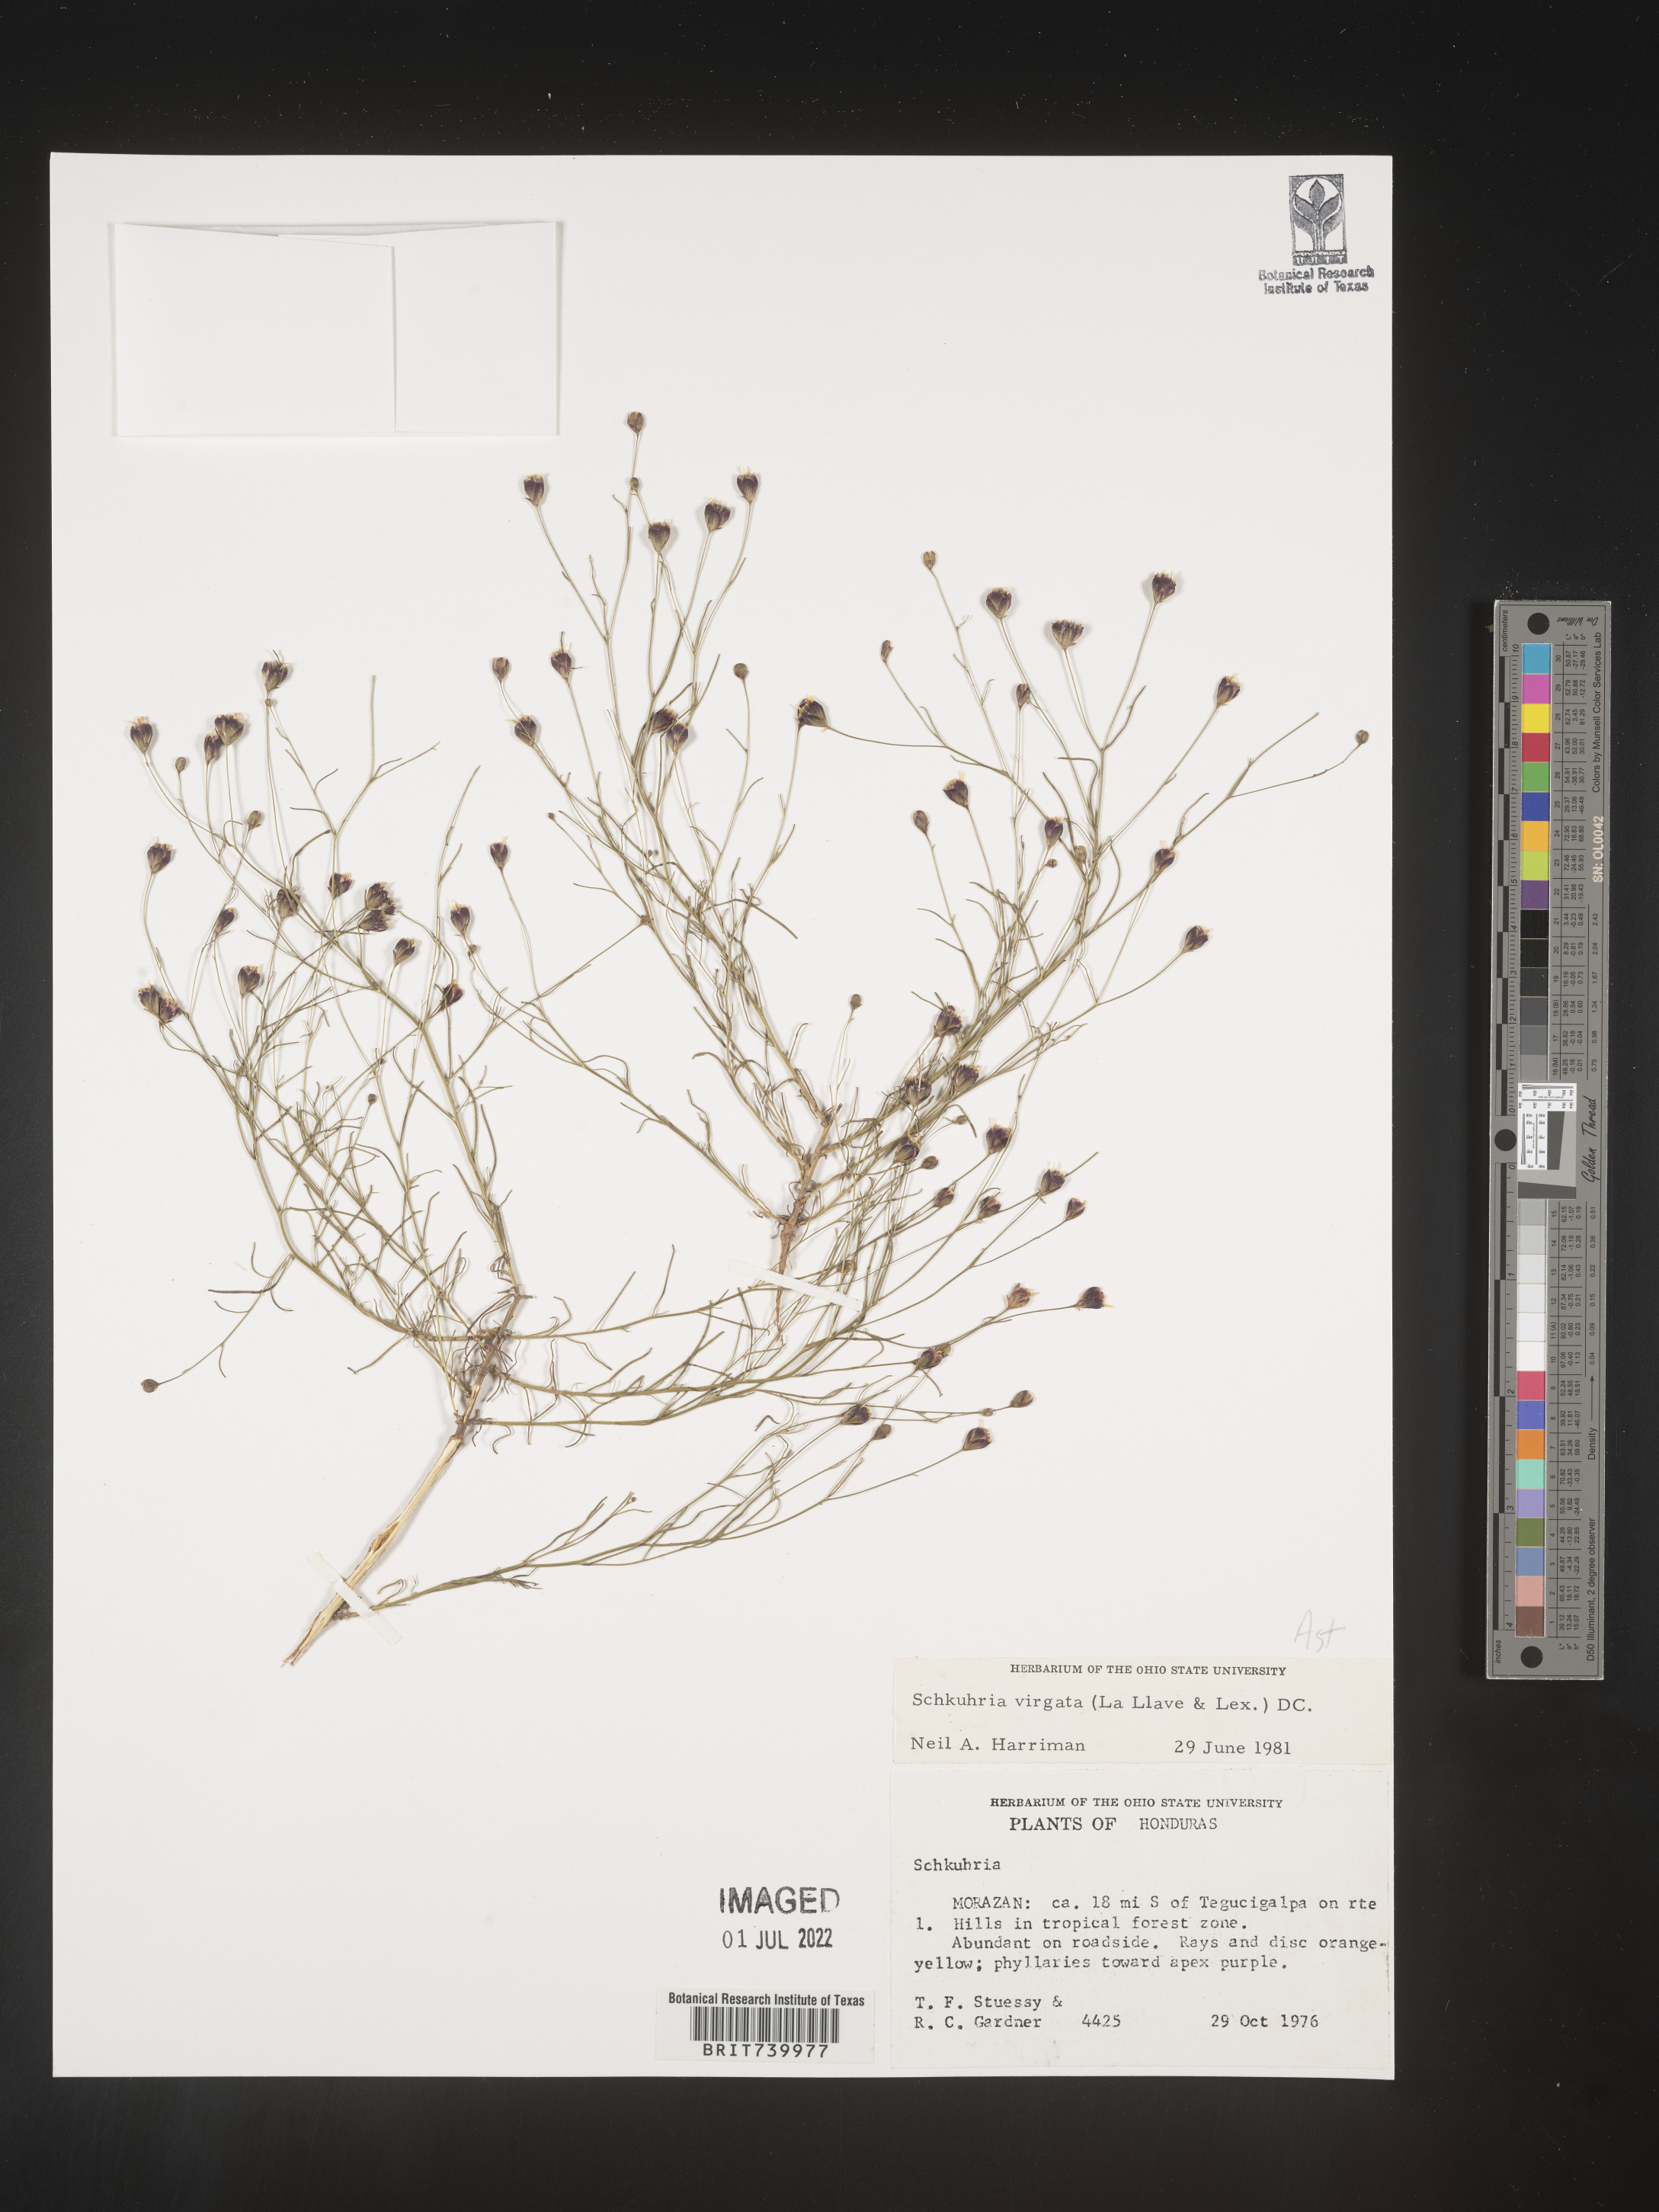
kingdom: Plantae
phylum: Tracheophyta
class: Magnoliopsida
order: Asterales
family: Asteraceae
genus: Schkuhria
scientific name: Schkuhria
